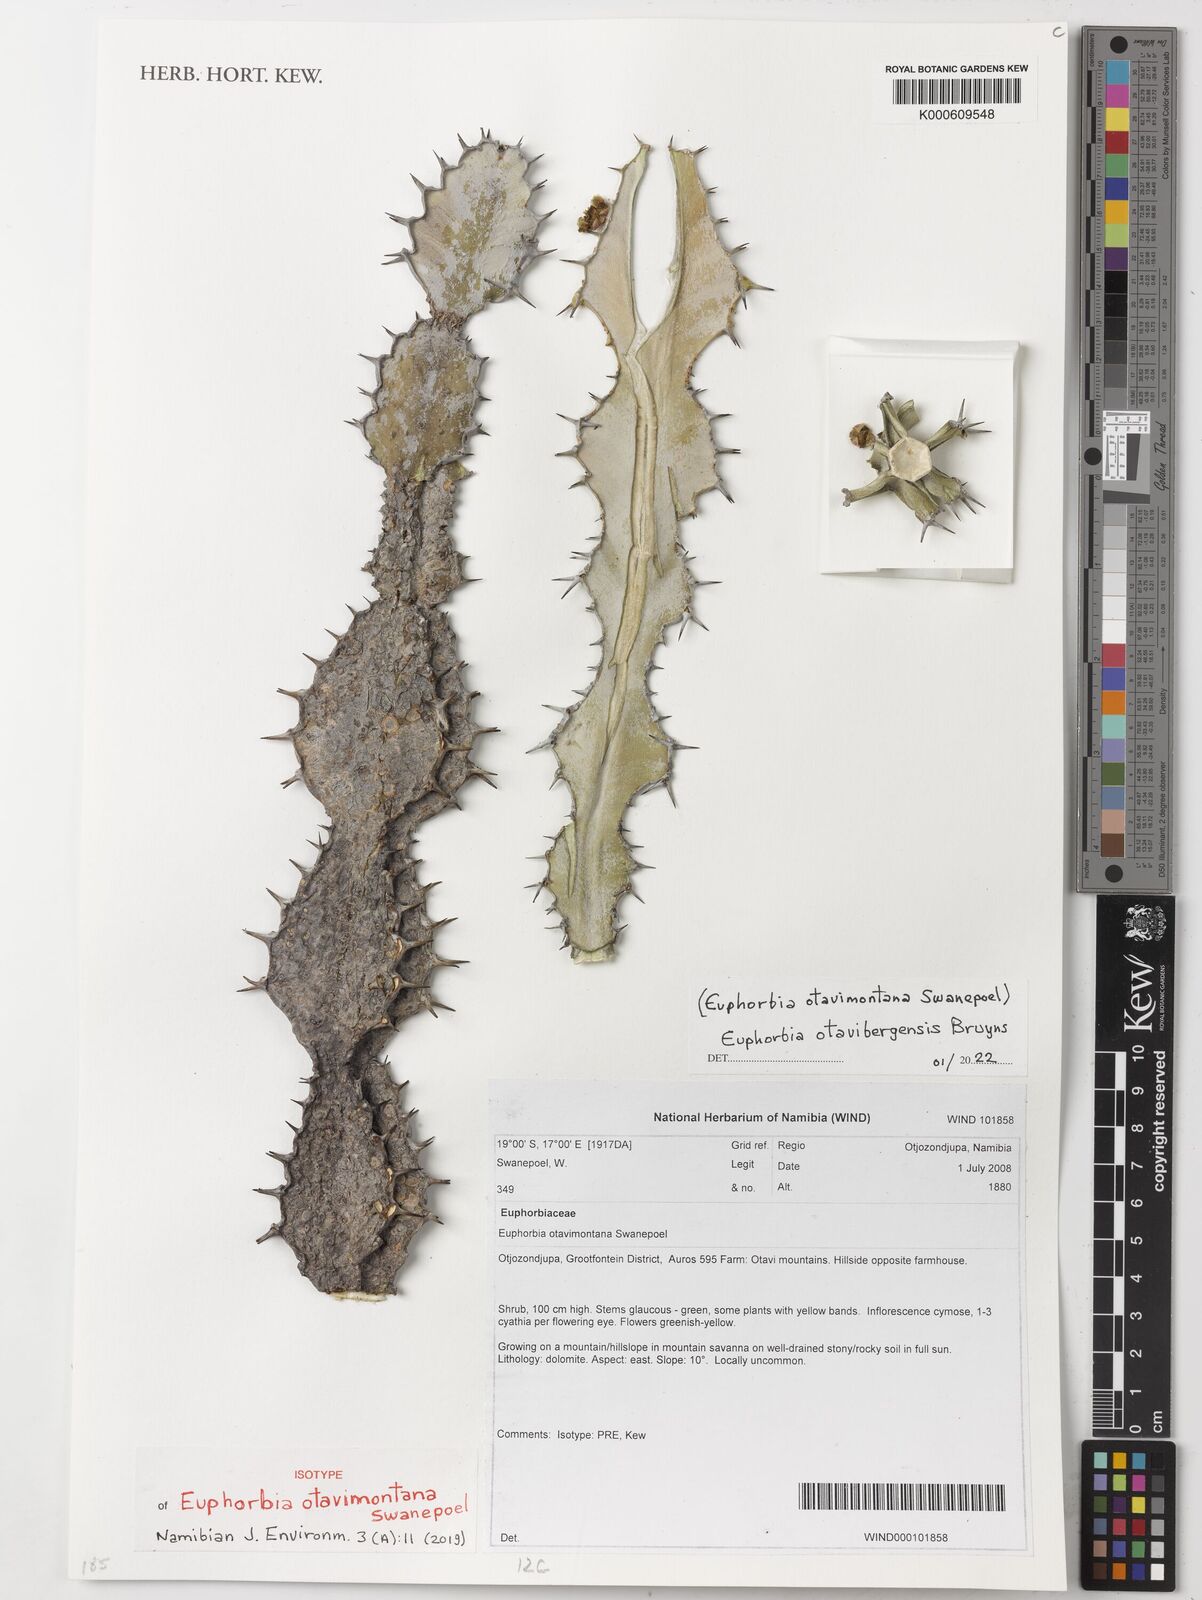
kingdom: Plantae
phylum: Tracheophyta
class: Magnoliopsida
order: Malpighiales
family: Euphorbiaceae
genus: Euphorbia
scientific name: Euphorbia otavibergensis
